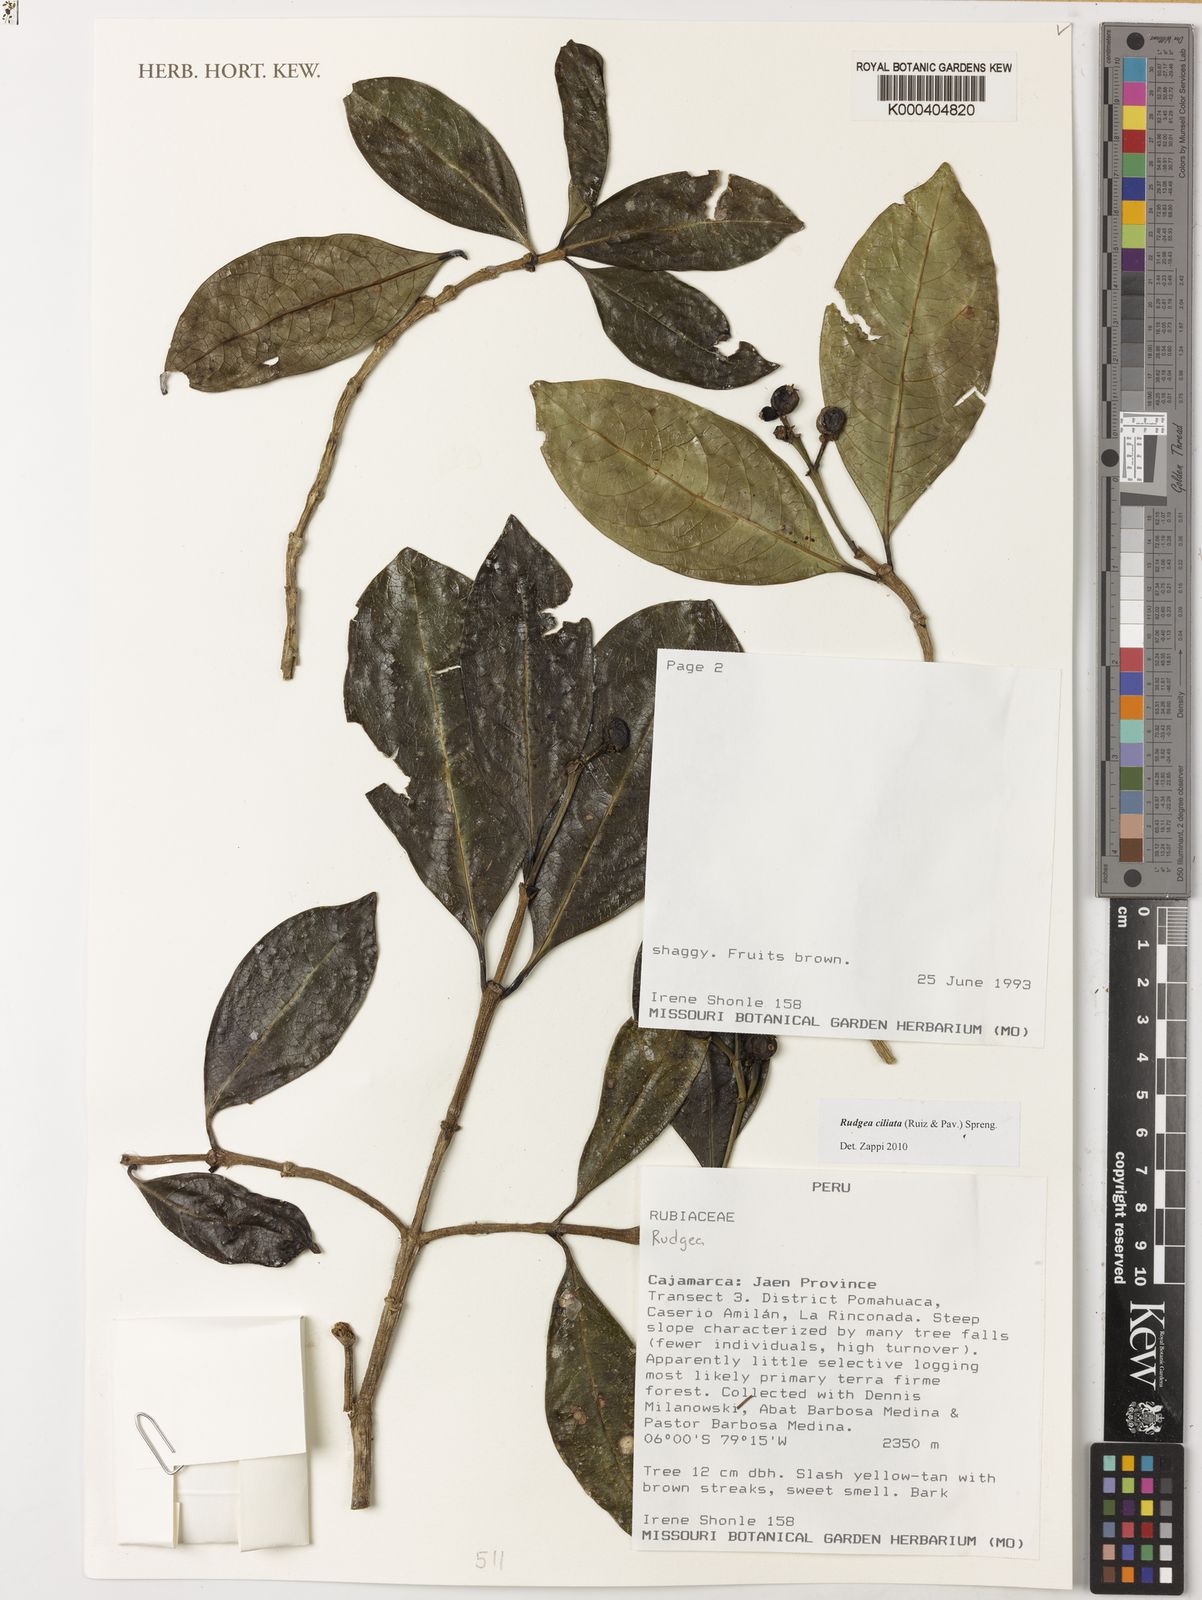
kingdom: Plantae
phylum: Tracheophyta
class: Magnoliopsida
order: Gentianales
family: Rubiaceae
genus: Rudgea
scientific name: Rudgea ciliata
